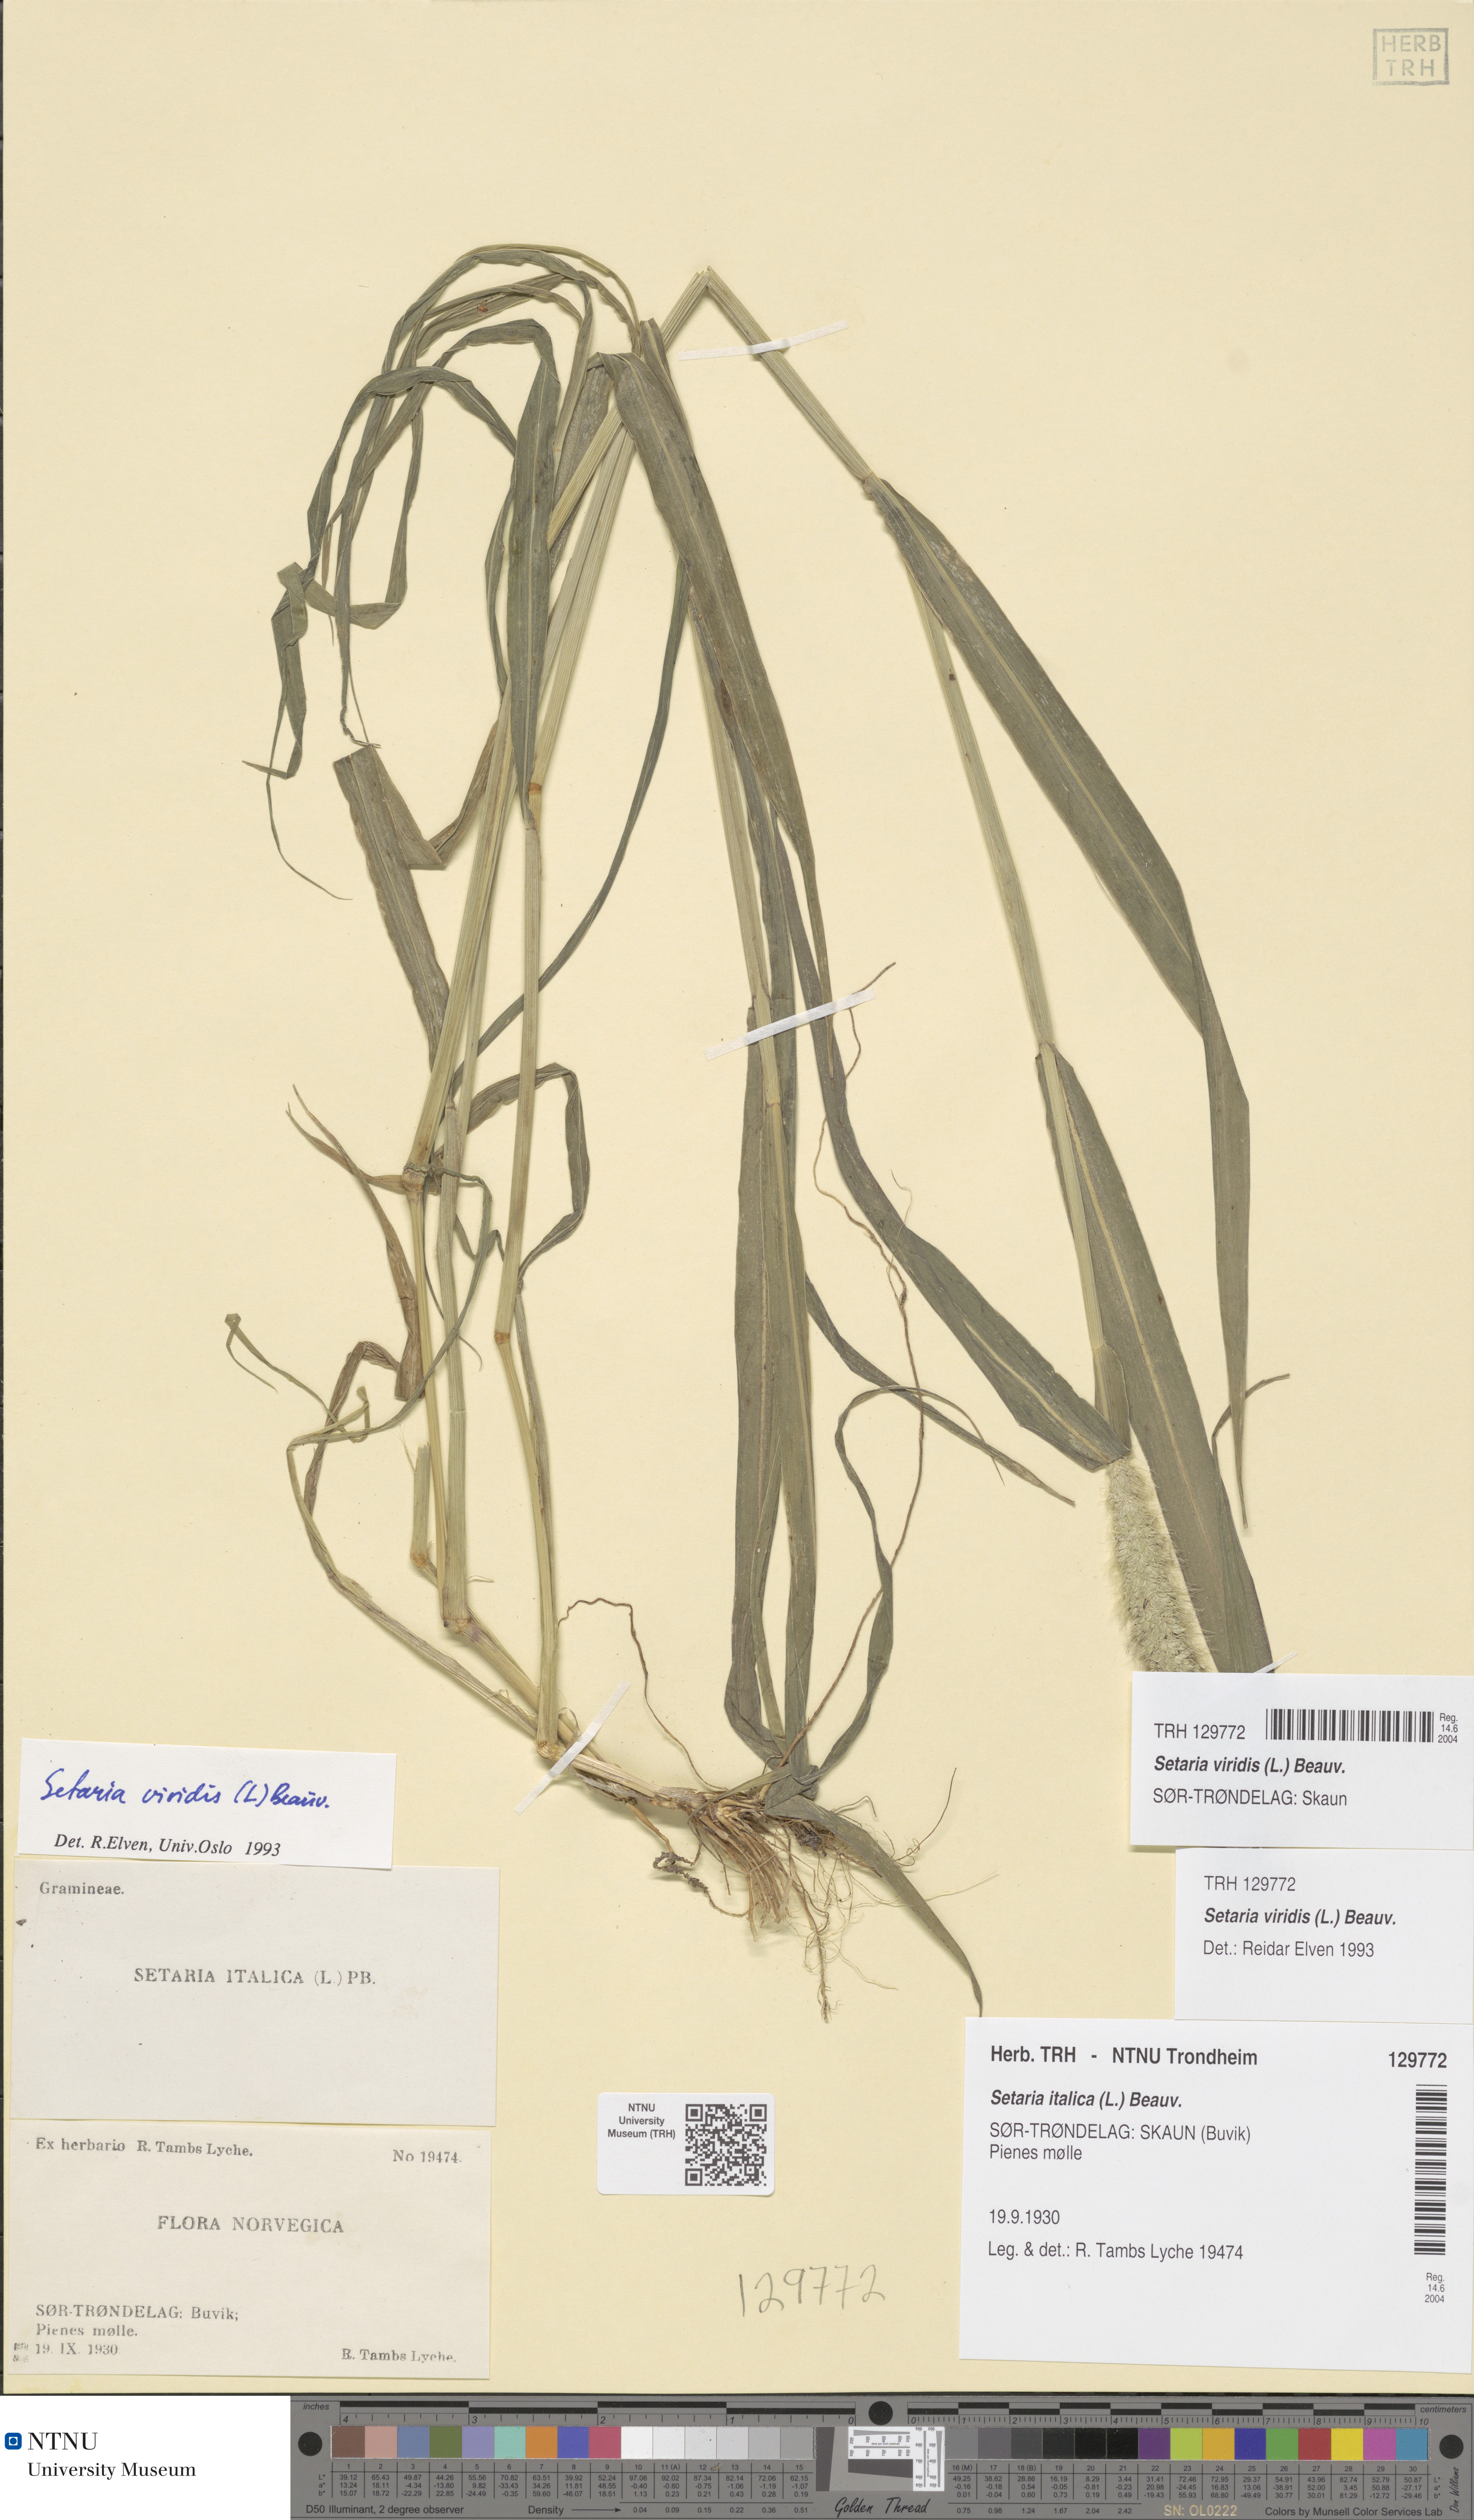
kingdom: Plantae
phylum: Tracheophyta
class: Liliopsida
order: Poales
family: Poaceae
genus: Setaria
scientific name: Setaria viridis
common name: Green bristlegrass
